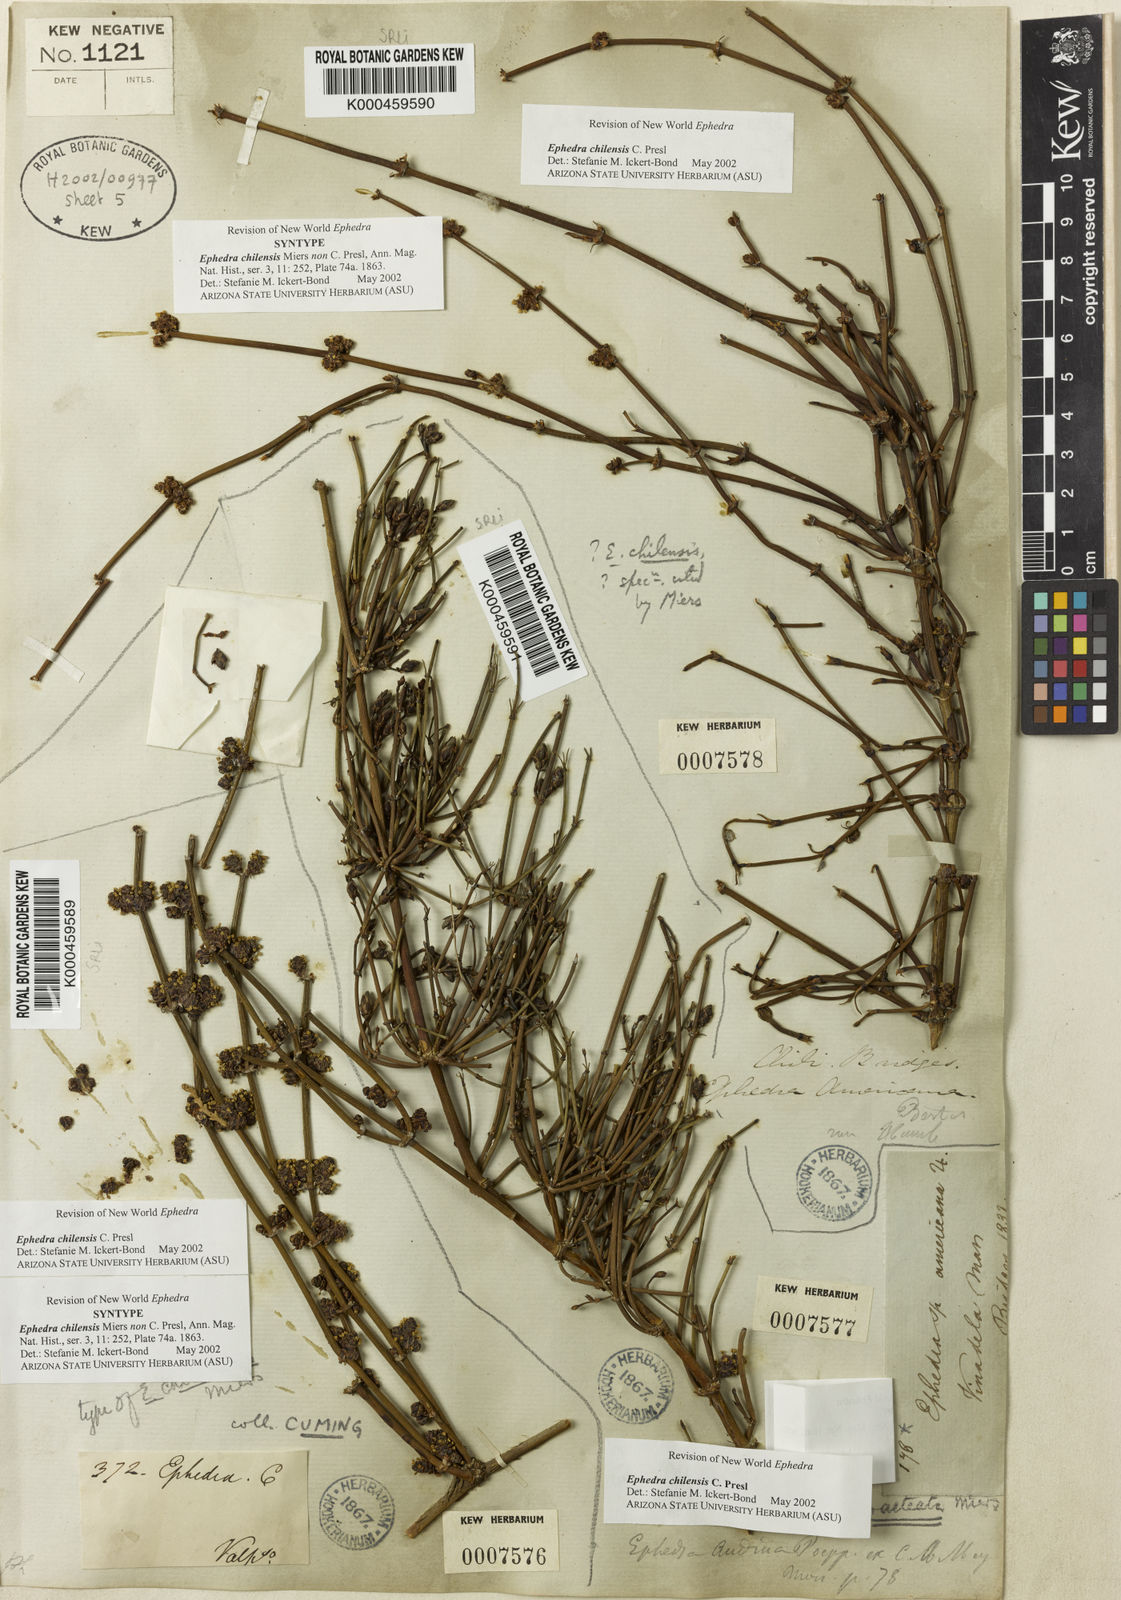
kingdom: Plantae
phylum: Tracheophyta
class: Gnetopsida
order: Ephedrales
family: Ephedraceae
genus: Ephedra
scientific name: Ephedra americana
